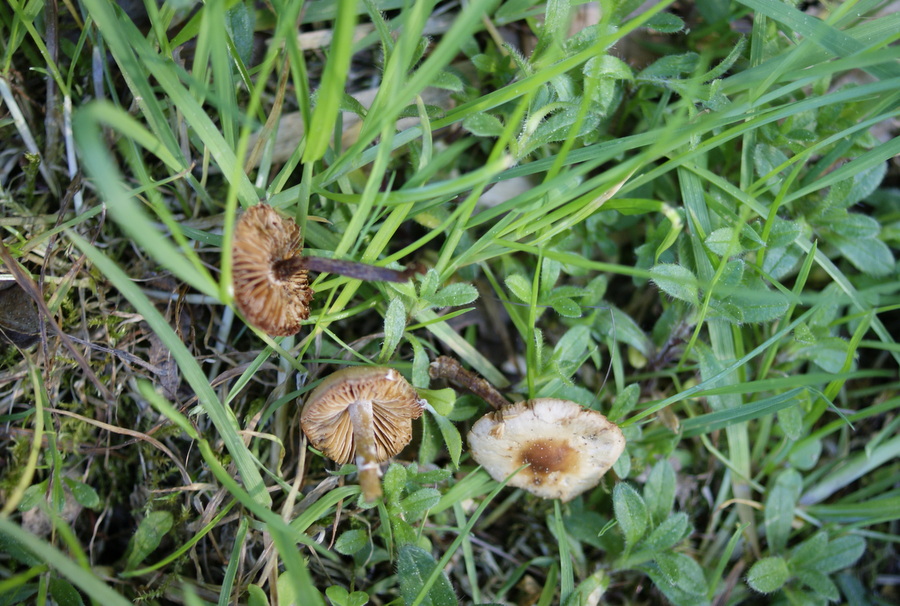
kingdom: Fungi
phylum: Basidiomycota
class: Agaricomycetes
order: Agaricales
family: Bolbitiaceae
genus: Conocybe
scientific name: Conocybe aporos
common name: tidlig dansehat
